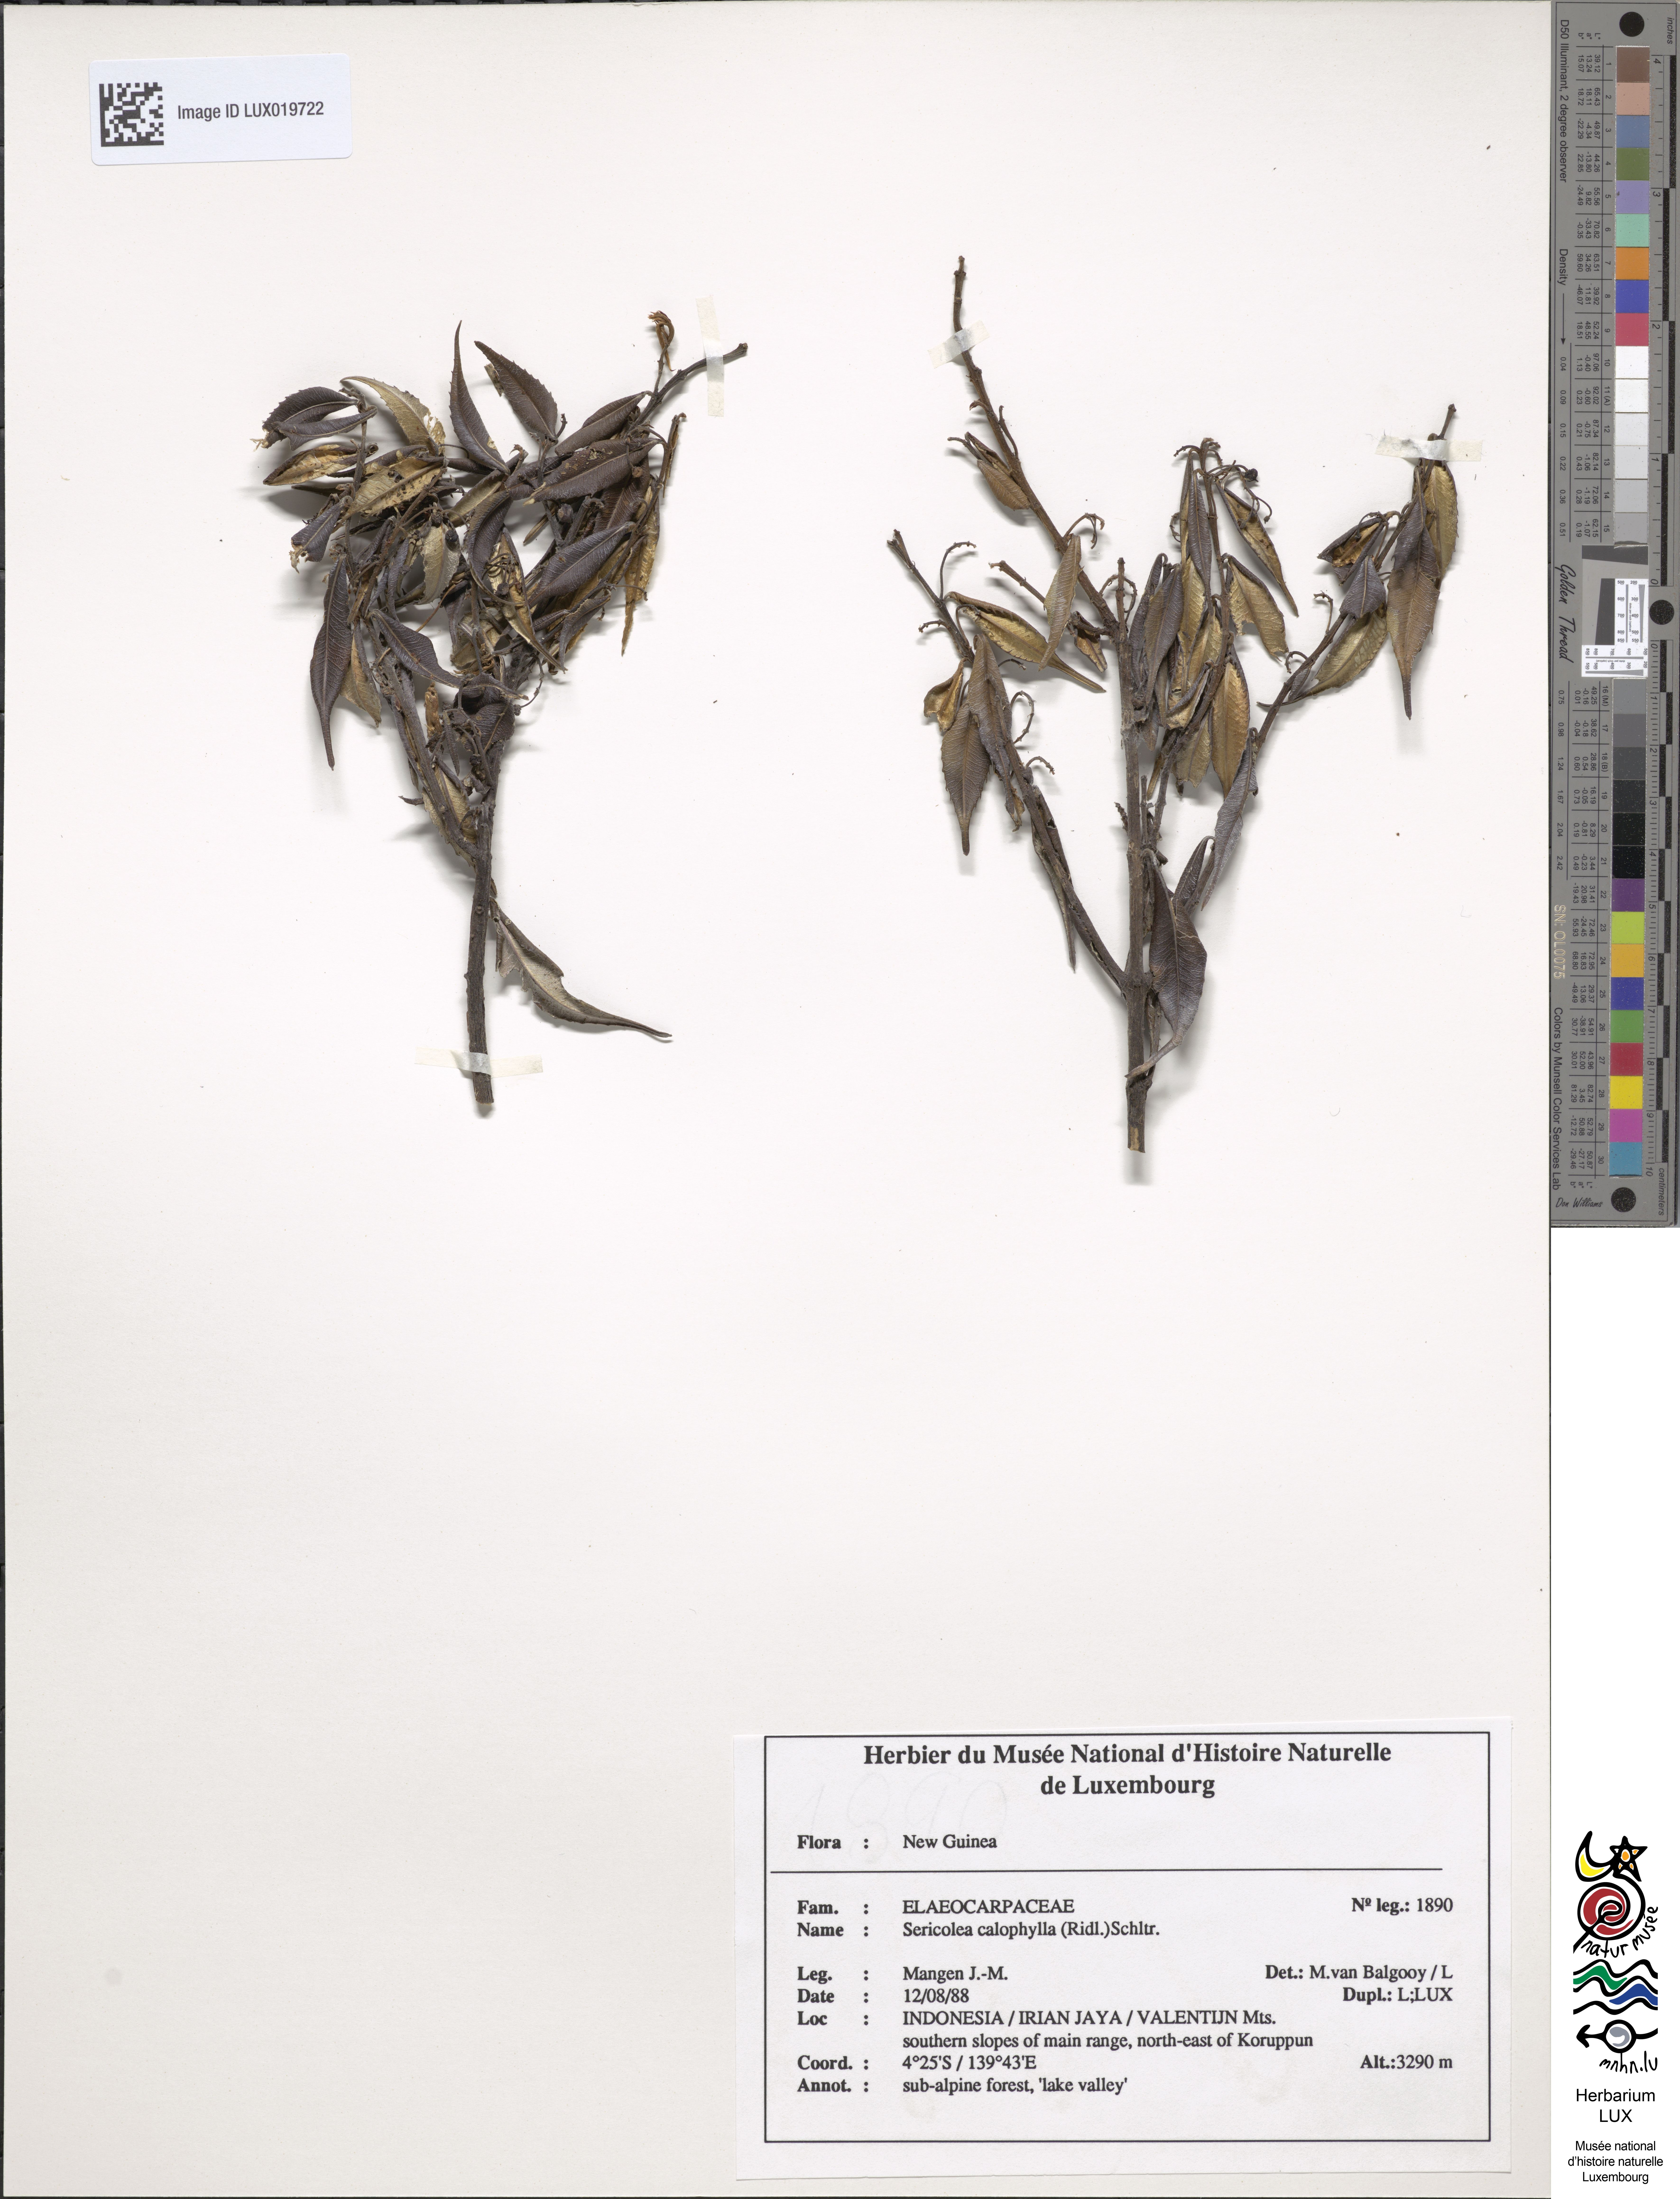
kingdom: Plantae
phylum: Tracheophyta
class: Magnoliopsida
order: Oxalidales
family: Elaeocarpaceae
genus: Sericolea
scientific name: Sericolea calophylla
